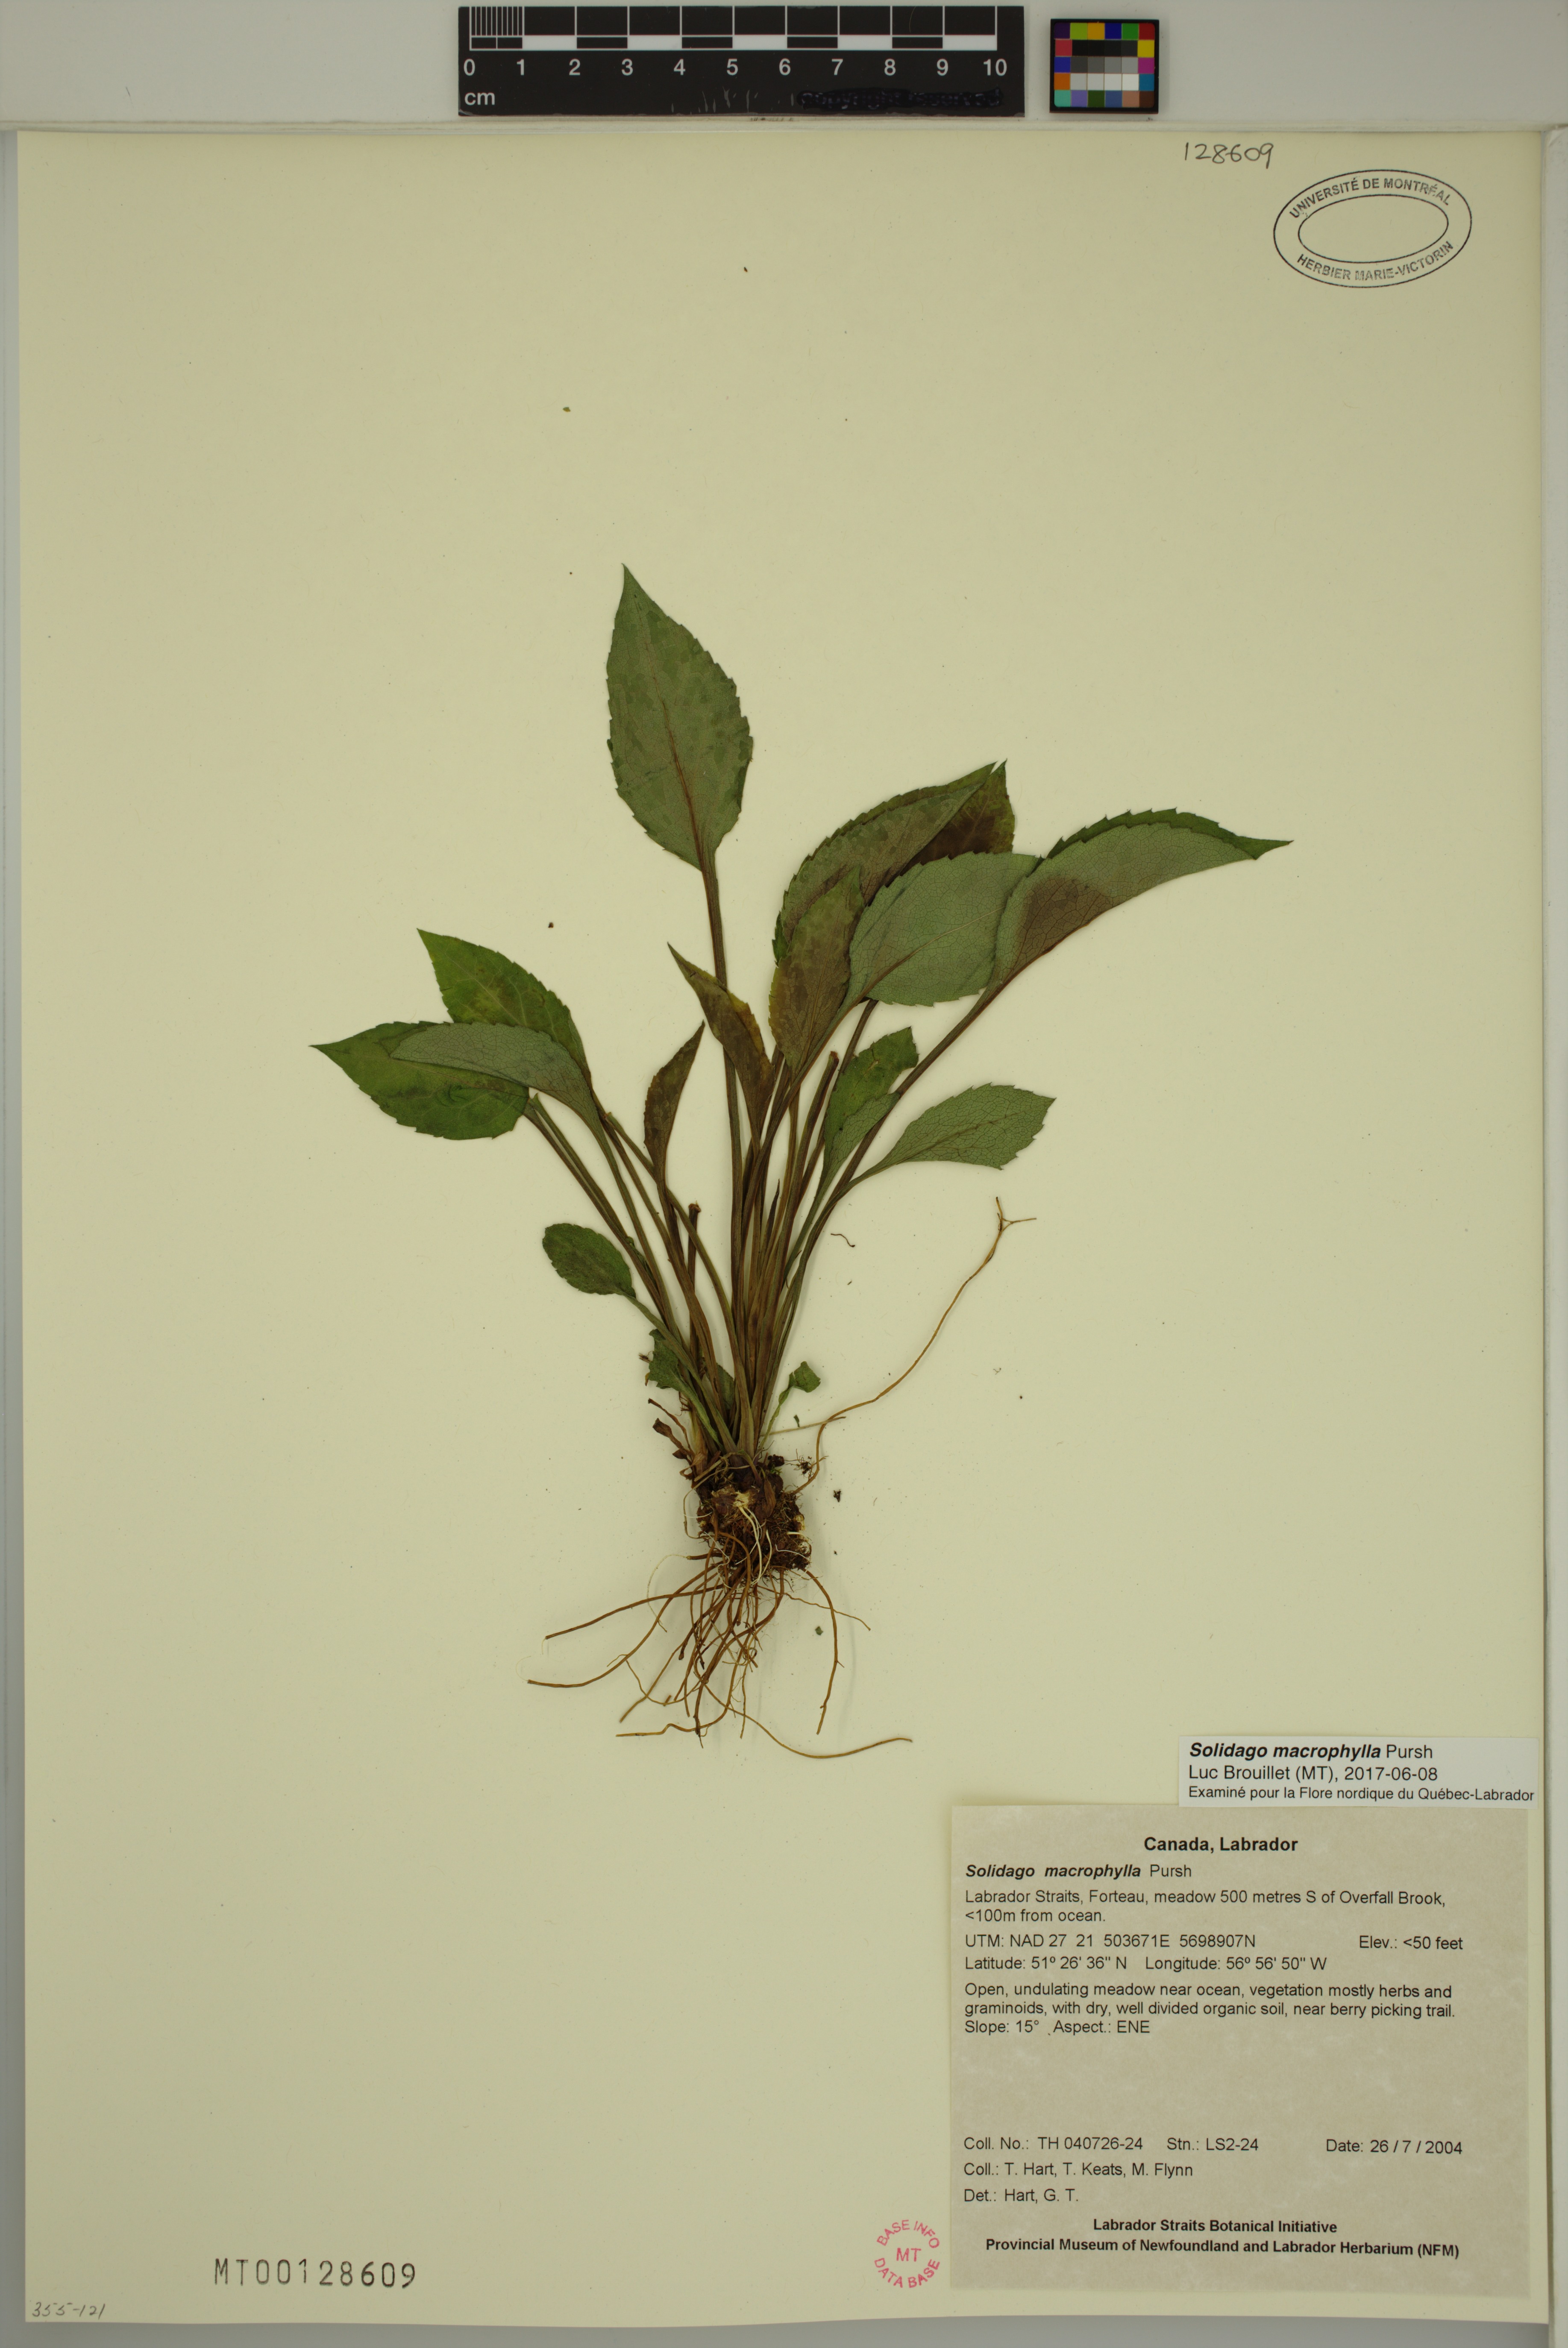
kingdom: Plantae
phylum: Tracheophyta
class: Magnoliopsida
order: Asterales
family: Asteraceae
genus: Solidago
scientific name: Solidago macrophylla
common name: Large-leaved goldenrod
